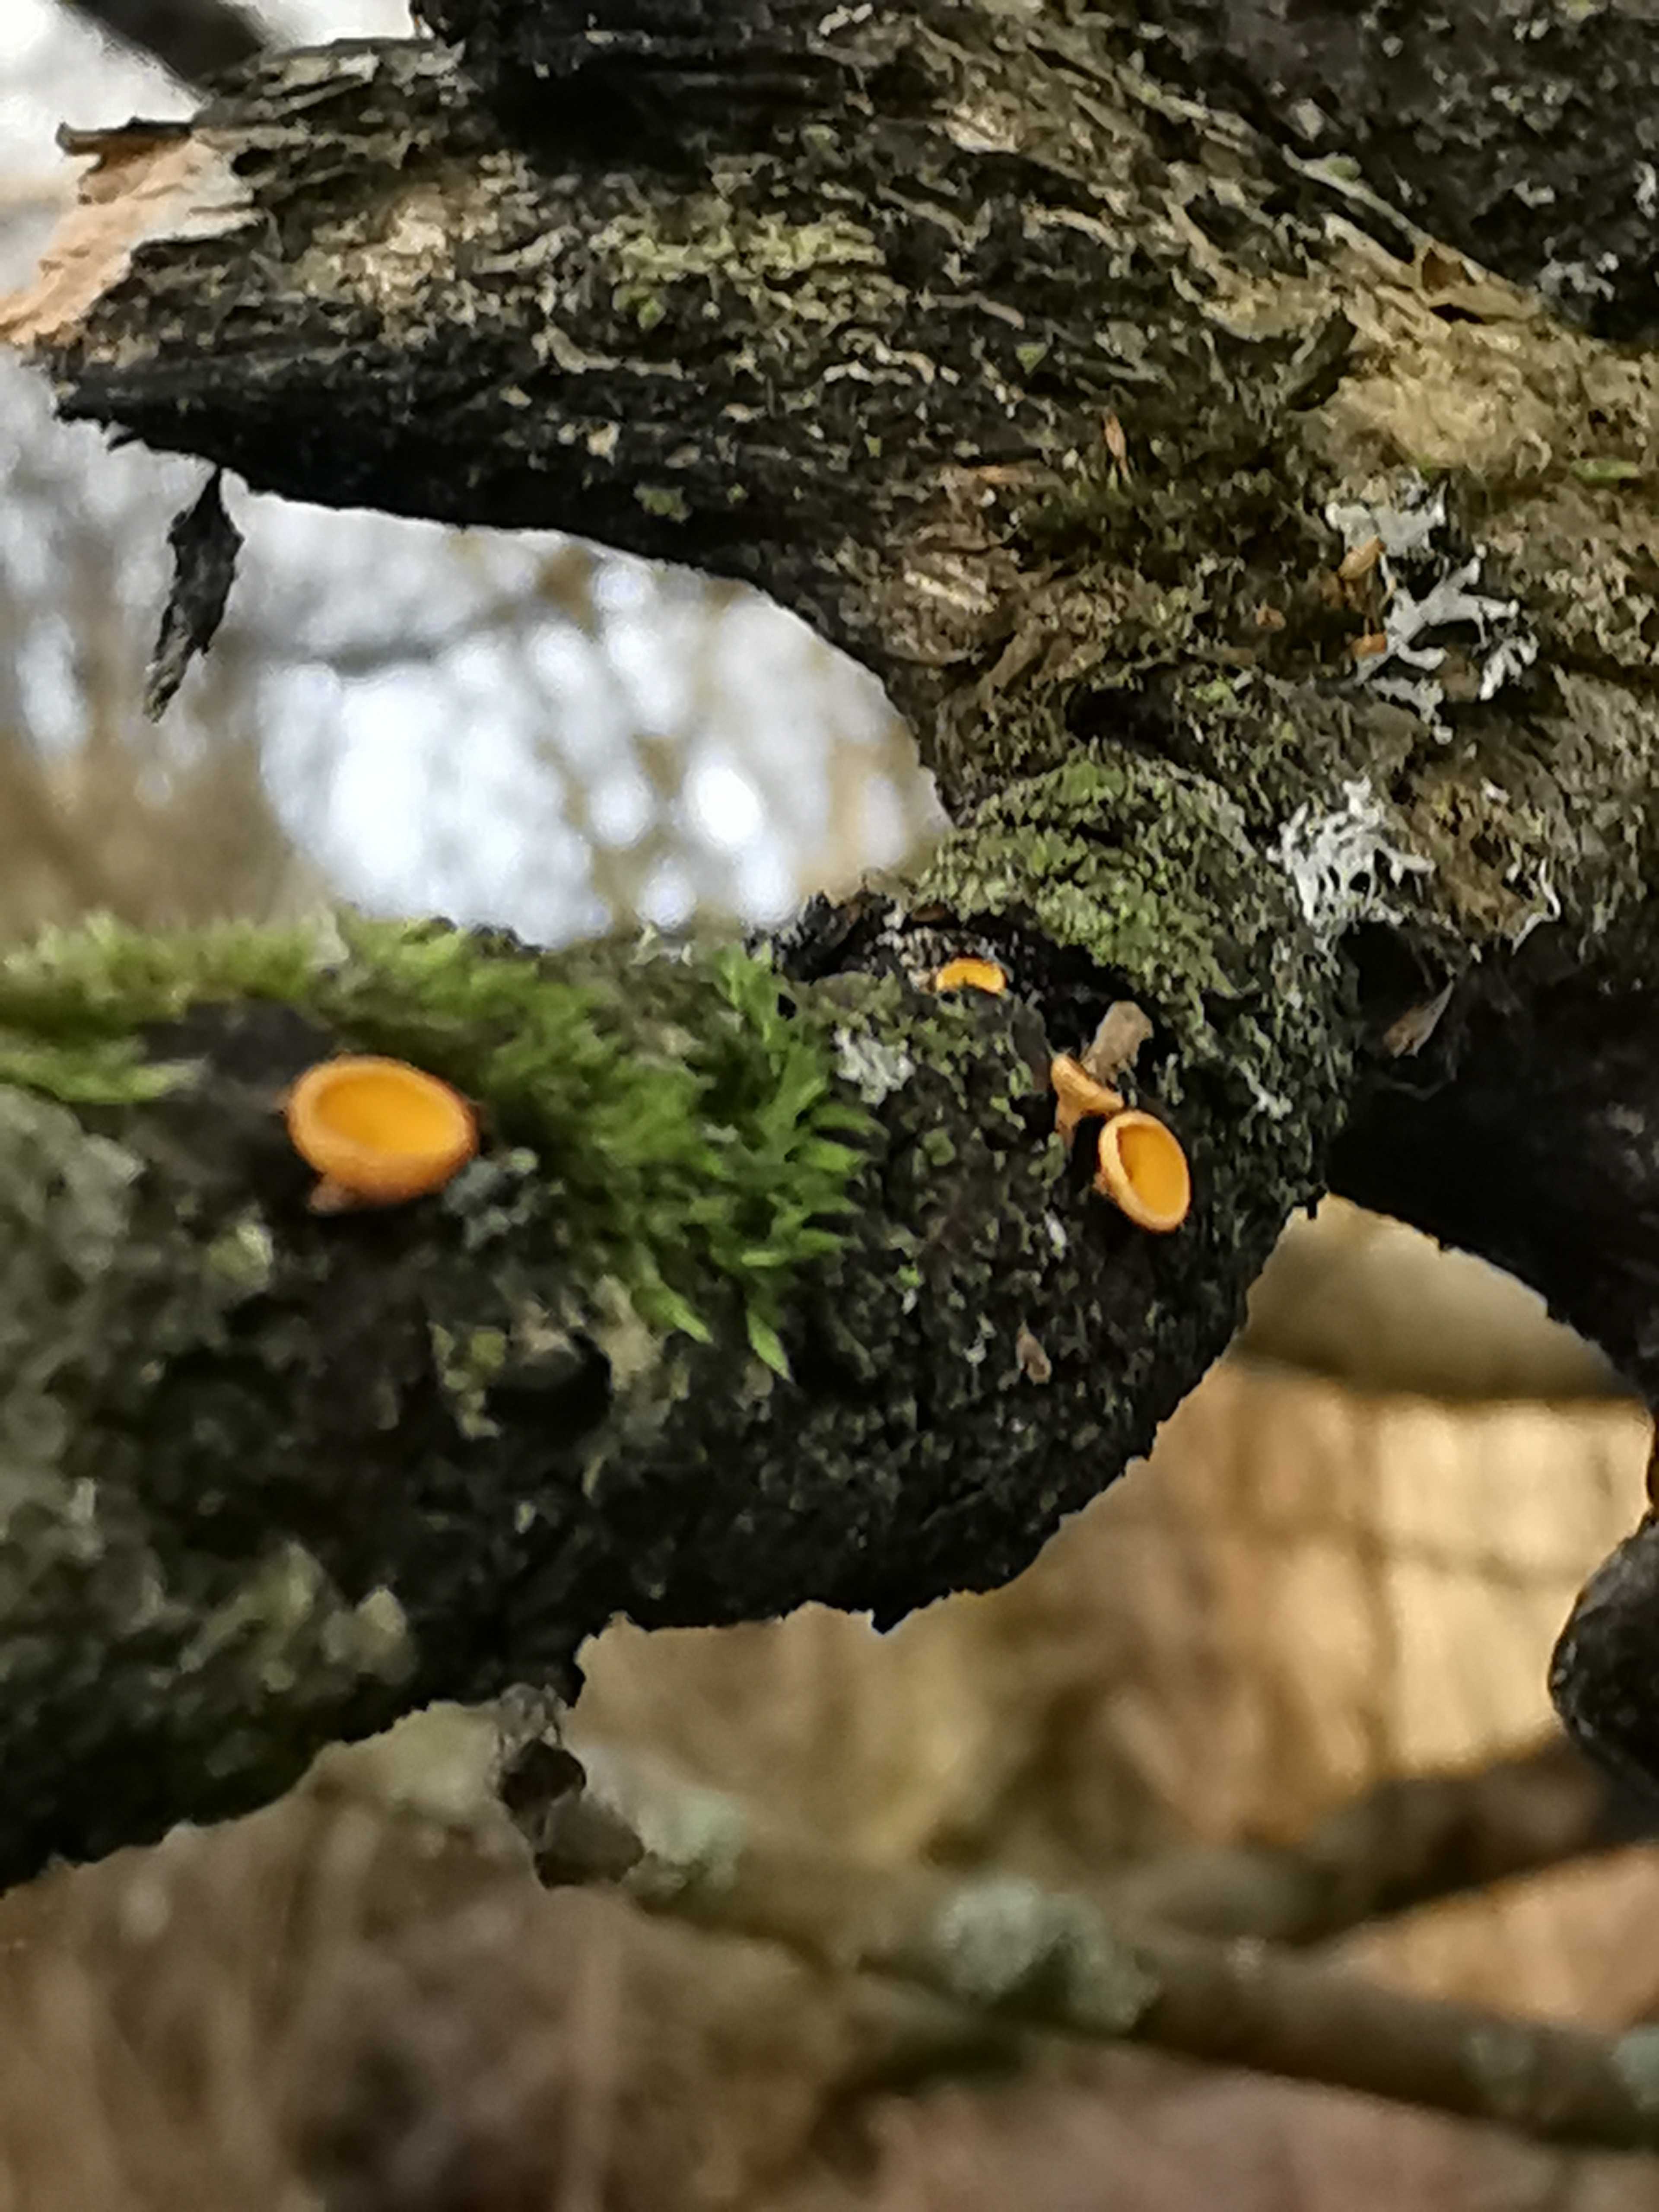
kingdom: Fungi
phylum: Ascomycota
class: Leotiomycetes
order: Helotiales
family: Helotiaceae
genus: Hymenoscyphus
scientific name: Hymenoscyphus
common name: stilkskive
